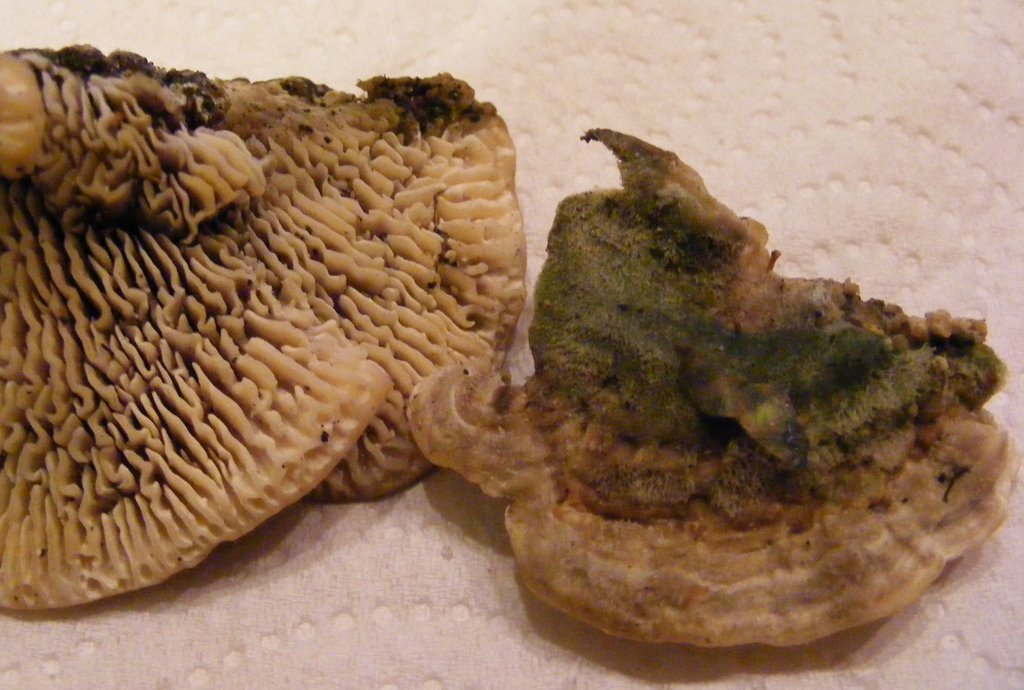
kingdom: Fungi
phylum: Basidiomycota
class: Agaricomycetes
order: Polyporales
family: Polyporaceae
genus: Lenzites
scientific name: Lenzites betulinus
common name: birke-læderporesvamp
